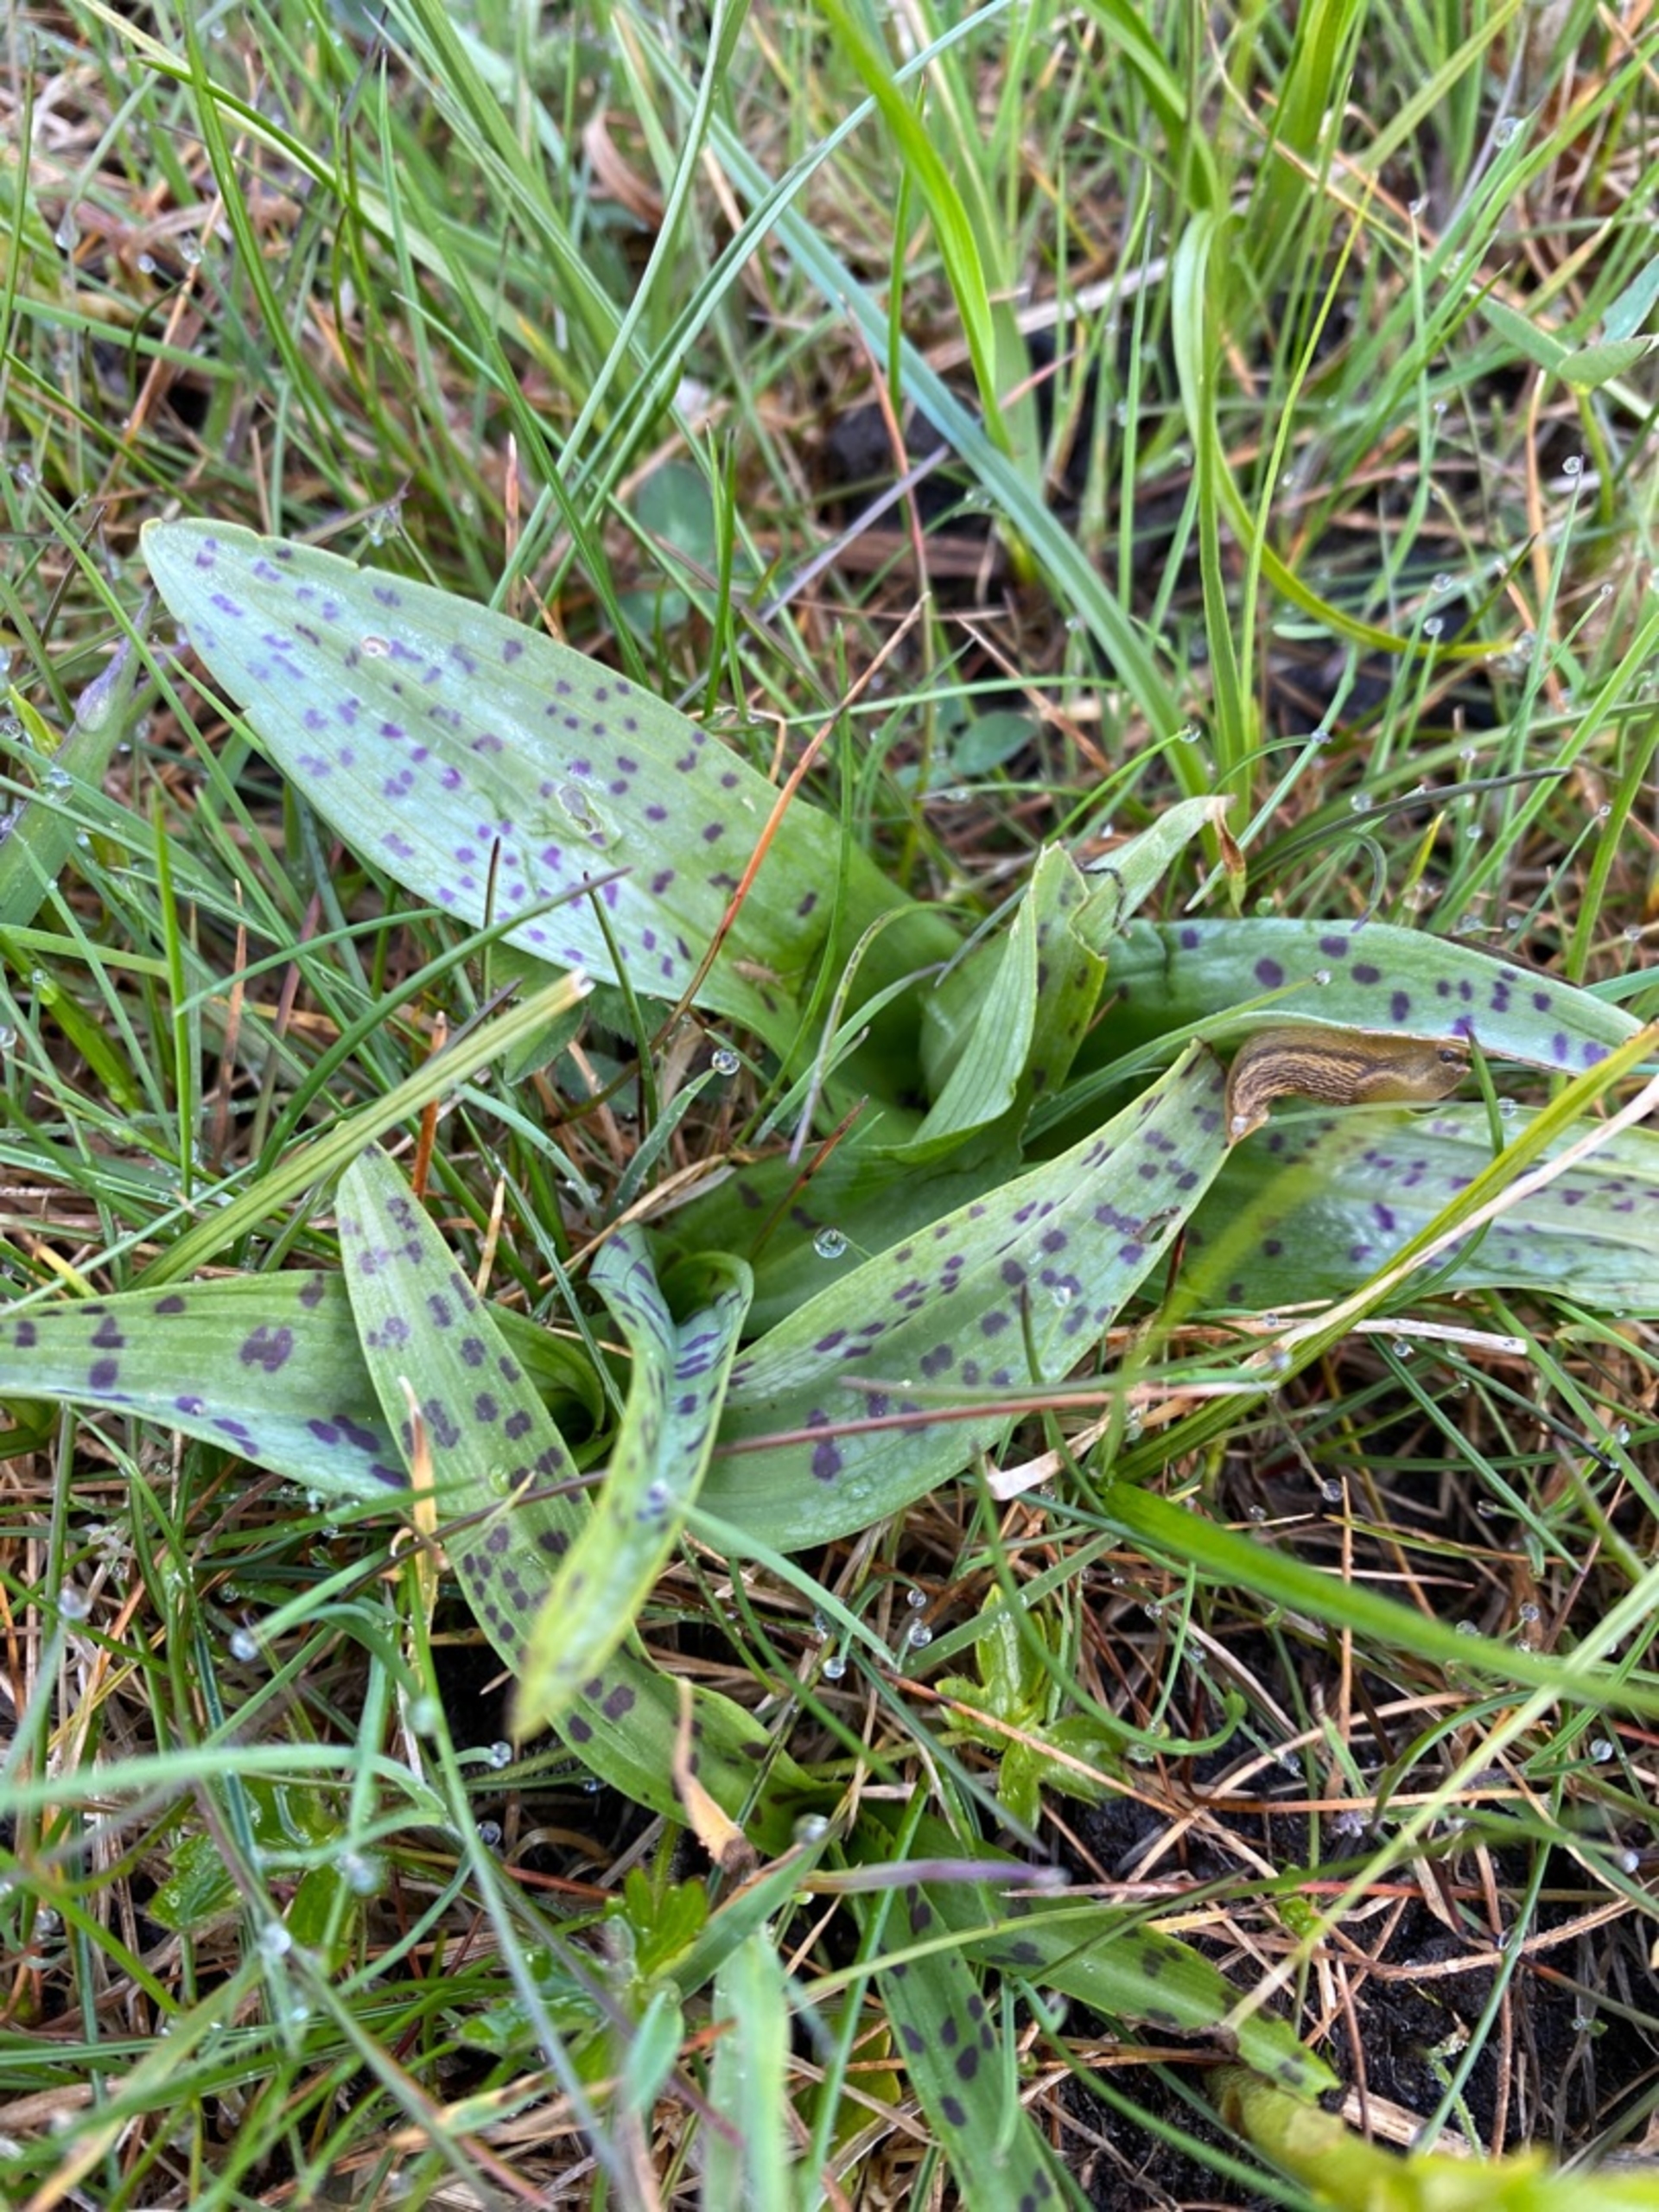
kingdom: Plantae
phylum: Tracheophyta
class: Liliopsida
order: Asparagales
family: Orchidaceae
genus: Dactylorhiza
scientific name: Dactylorhiza majalis
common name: Maj-gøgeurt (underart)
